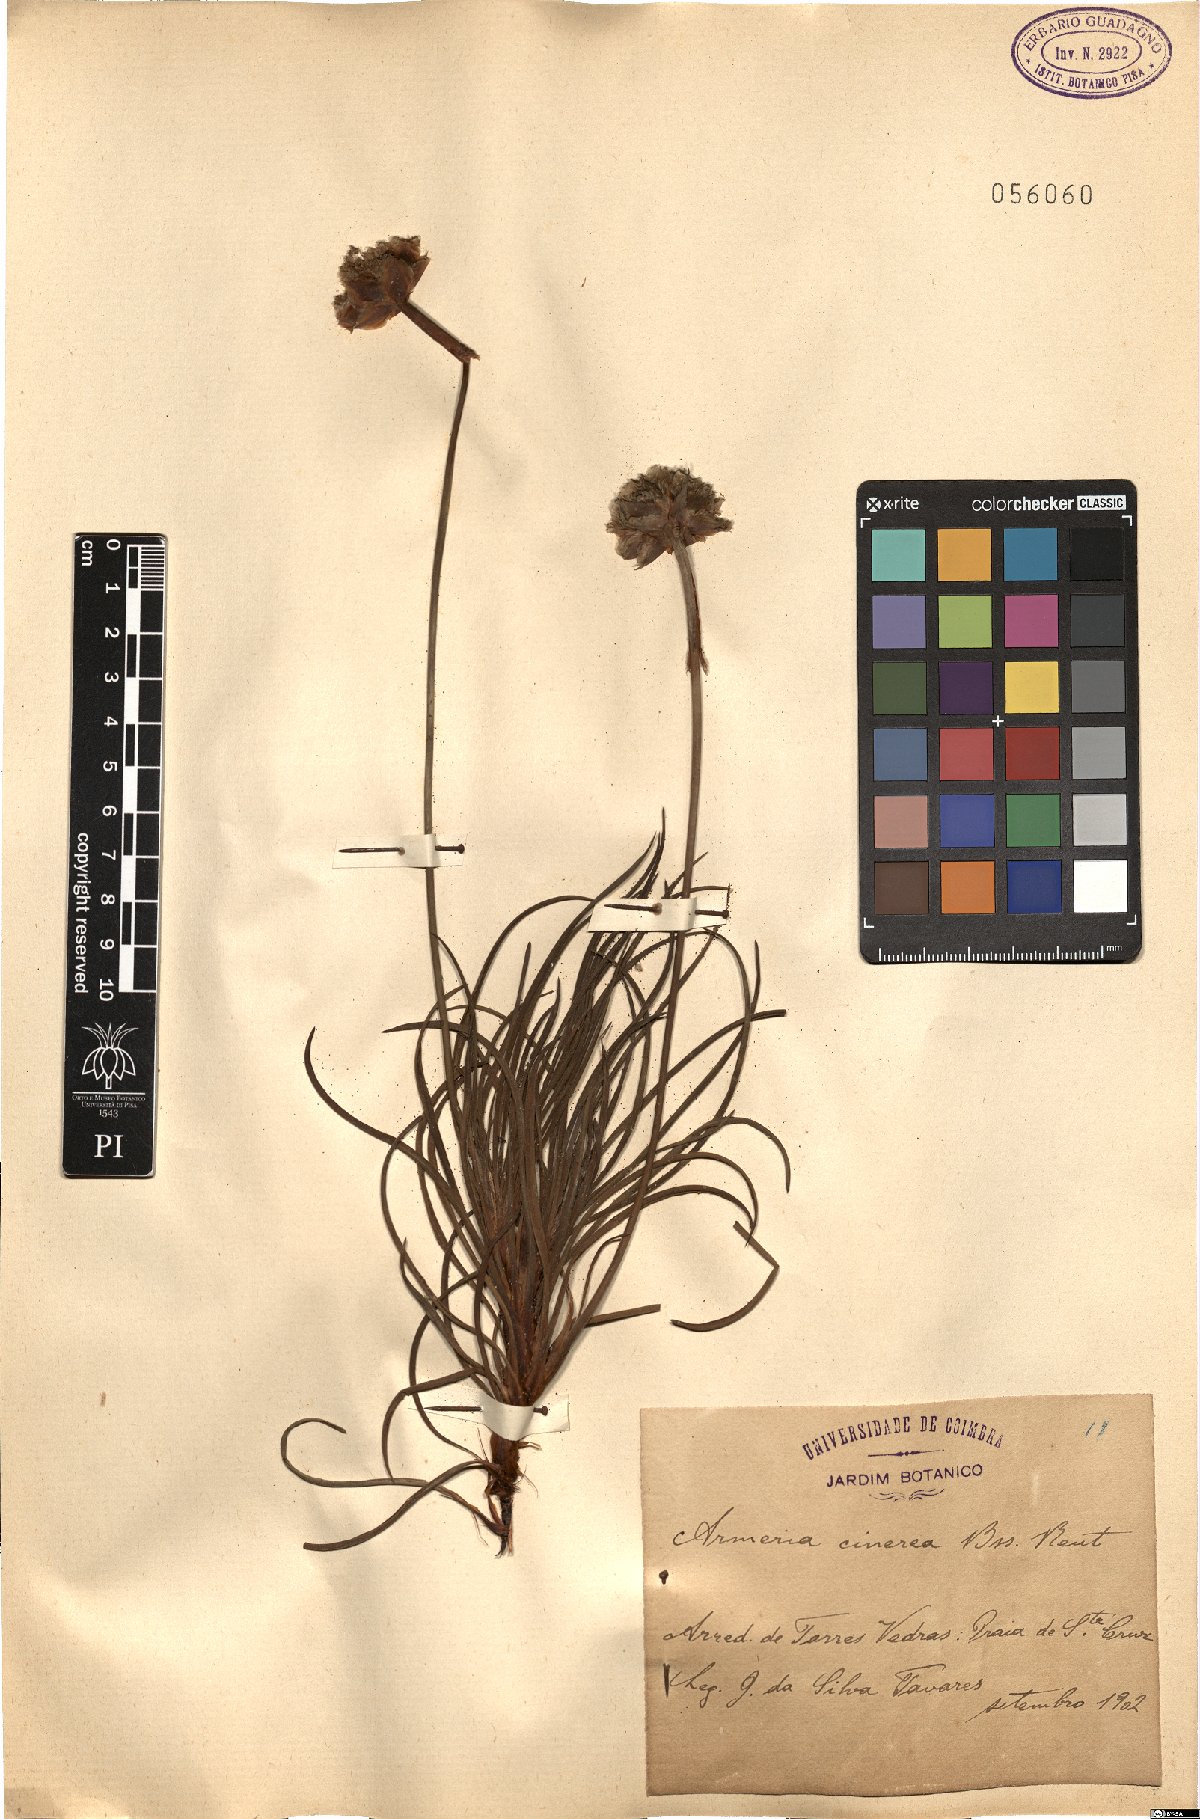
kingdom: Plantae
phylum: Tracheophyta
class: Magnoliopsida
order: Caryophyllales
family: Plumbaginaceae
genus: Armeria
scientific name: Armeria welwitschii
